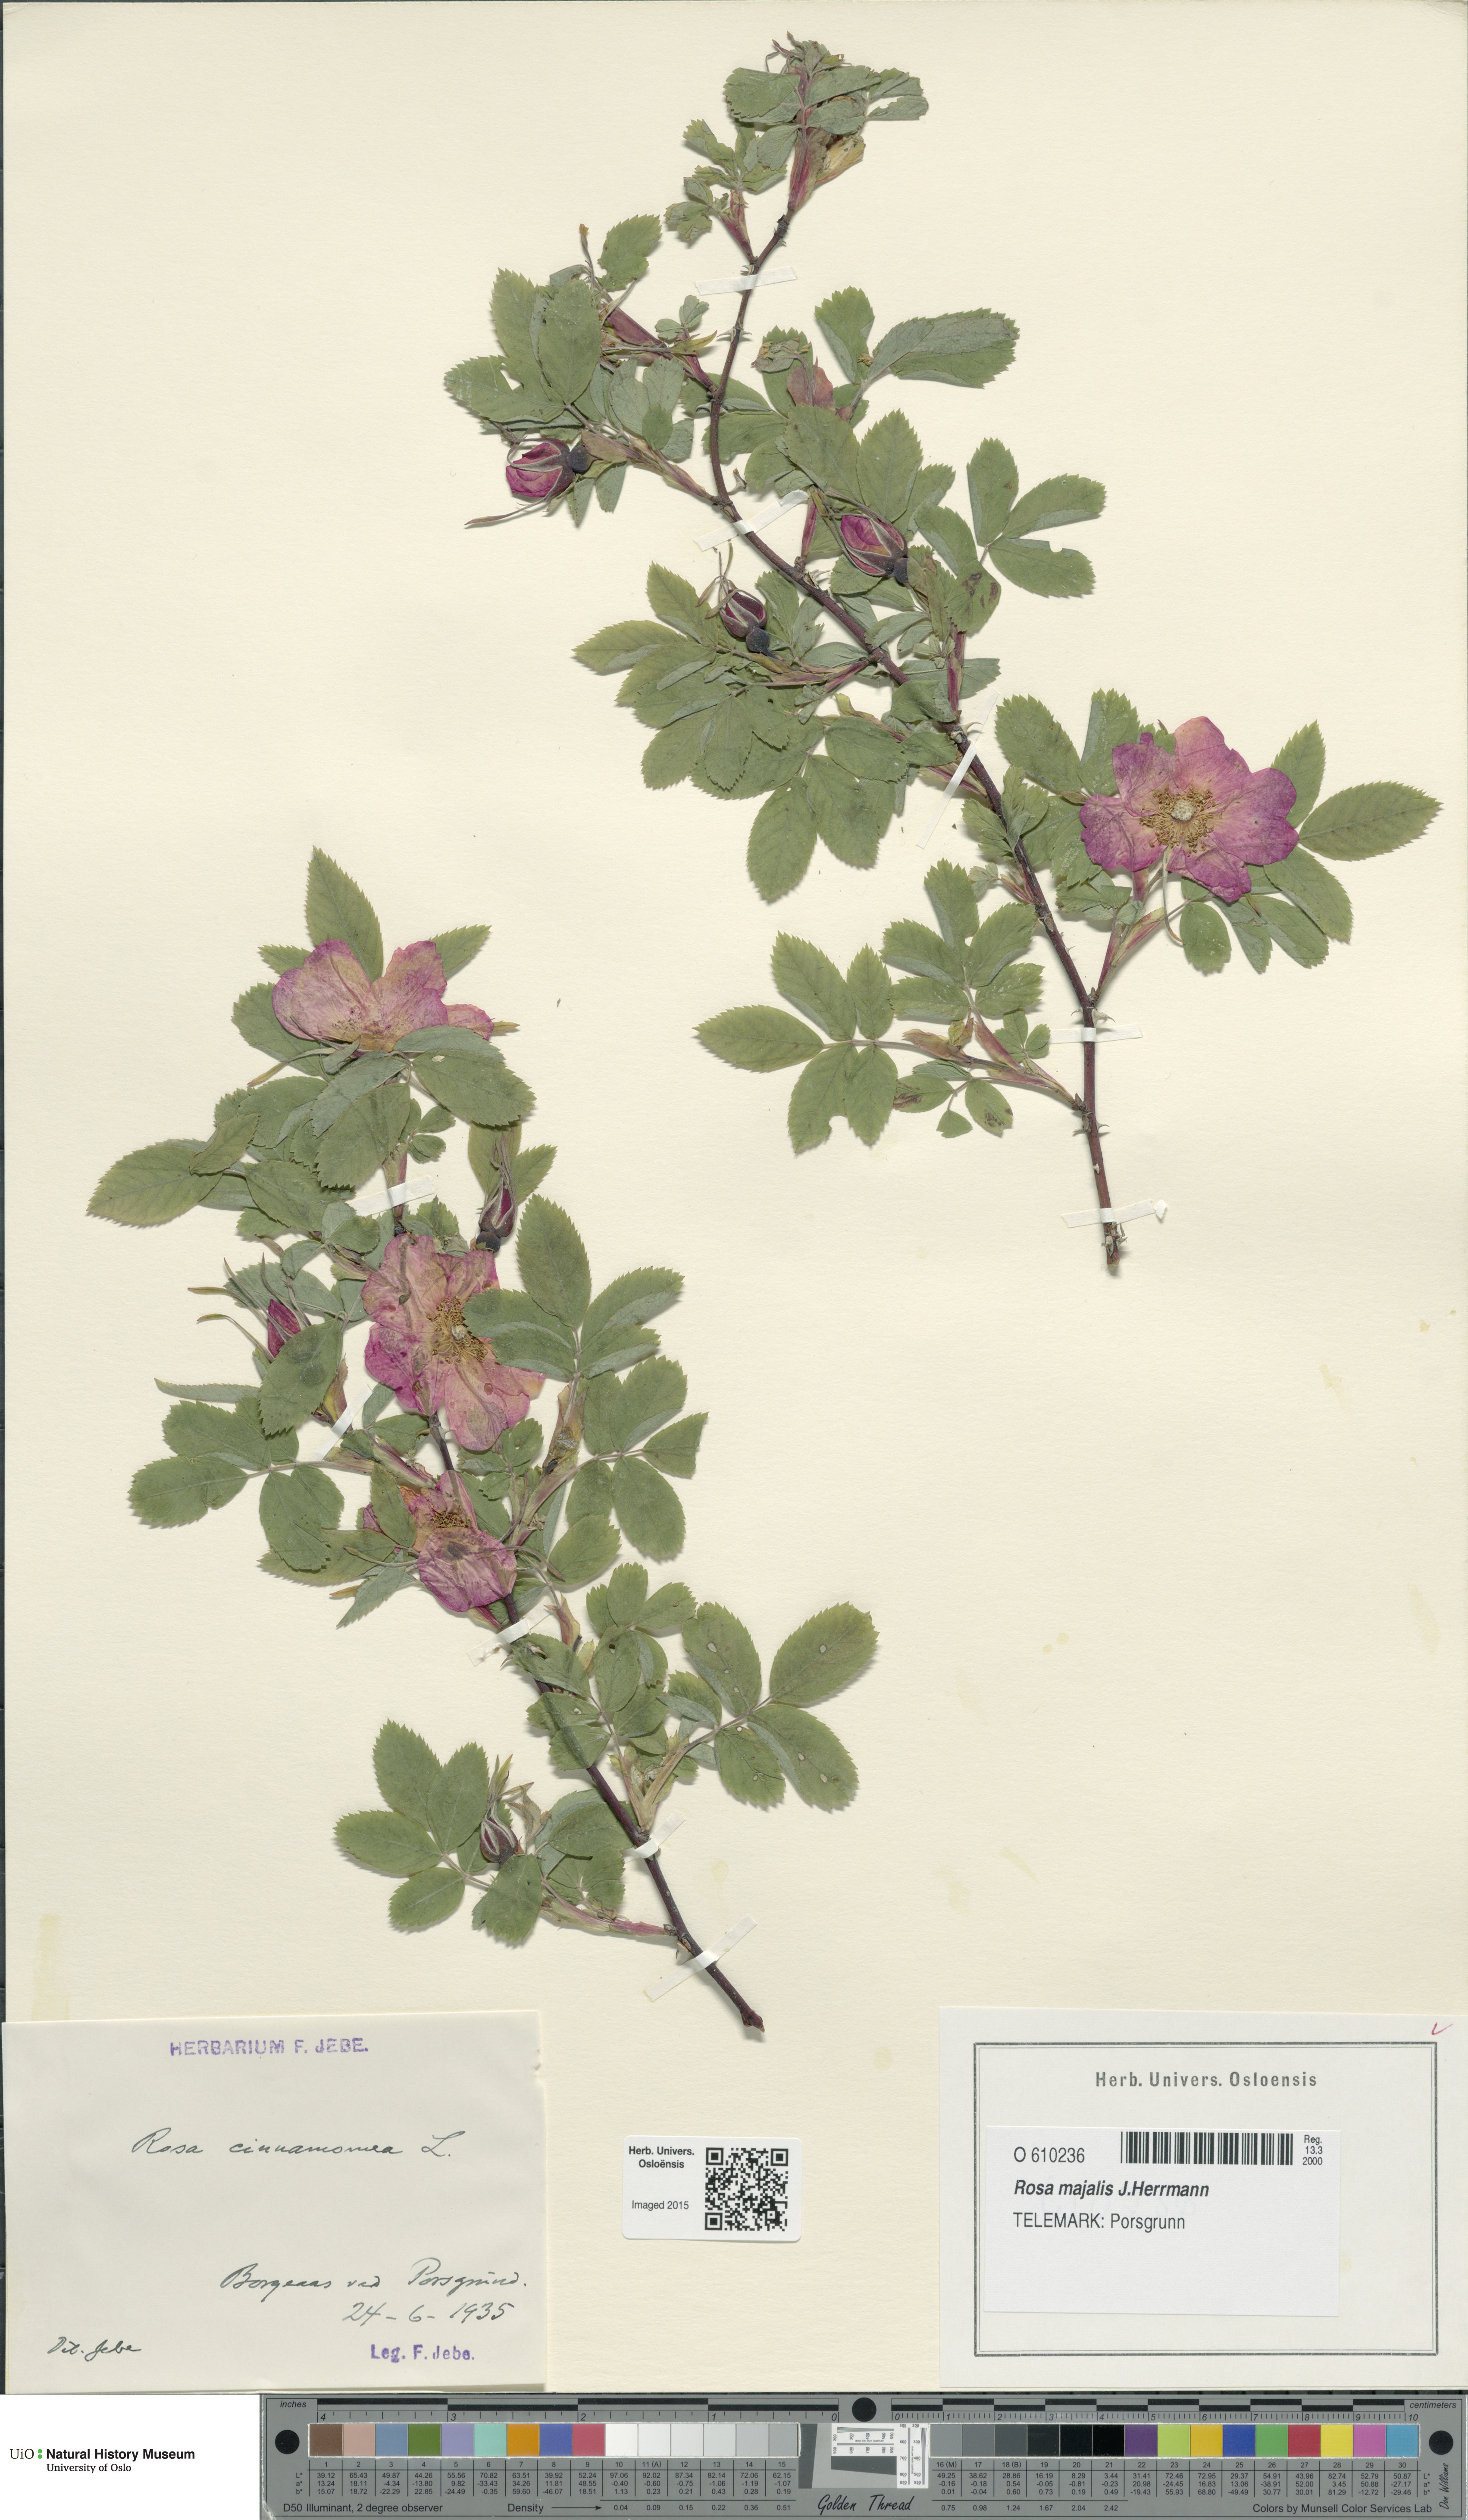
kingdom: Plantae
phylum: Tracheophyta
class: Magnoliopsida
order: Rosales
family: Rosaceae
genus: Rosa
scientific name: Rosa pendulina
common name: Alpine rose
